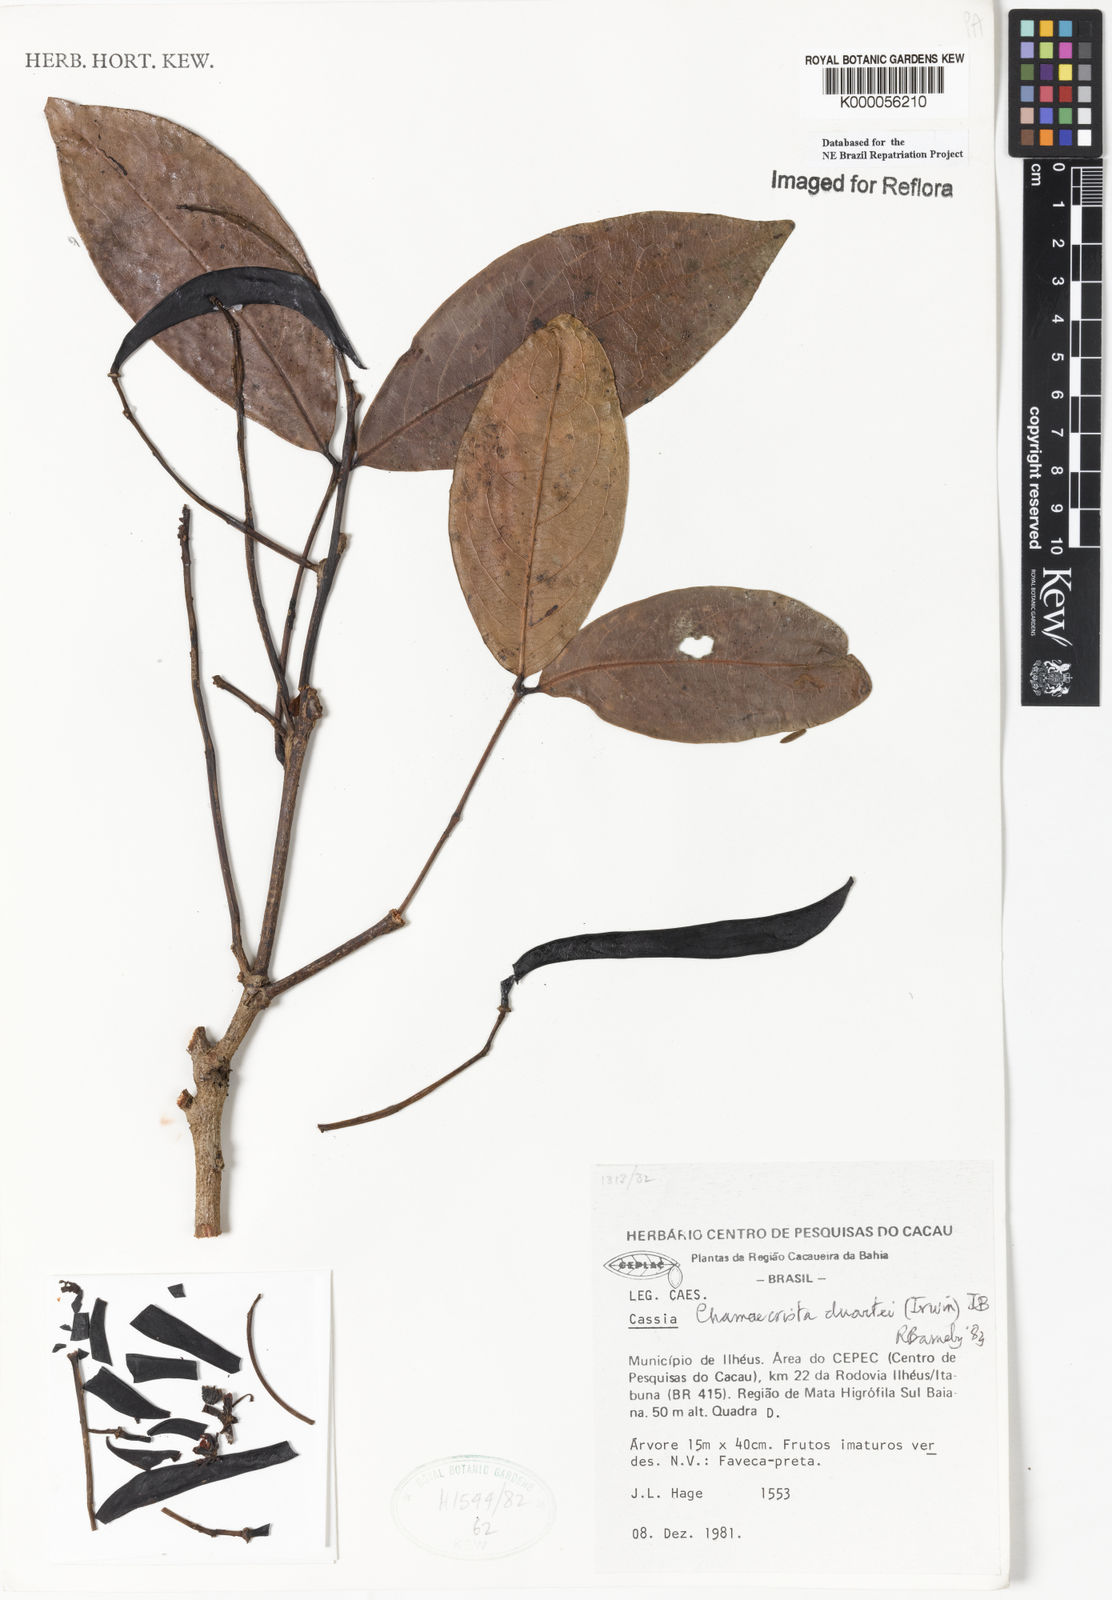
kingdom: Plantae
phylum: Tracheophyta
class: Magnoliopsida
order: Fabales
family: Fabaceae
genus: Chamaecrista
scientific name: Chamaecrista duartei
